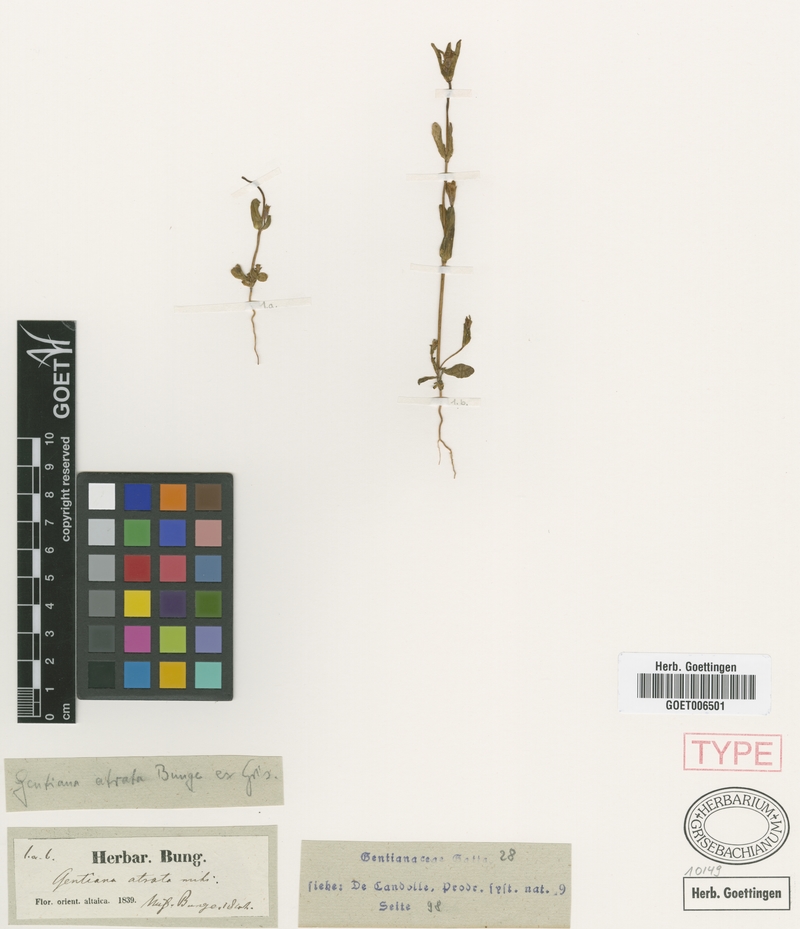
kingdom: Plantae
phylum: Tracheophyta
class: Magnoliopsida
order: Gentianales
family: Gentianaceae
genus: Gentianella
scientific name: Gentianella atrata
